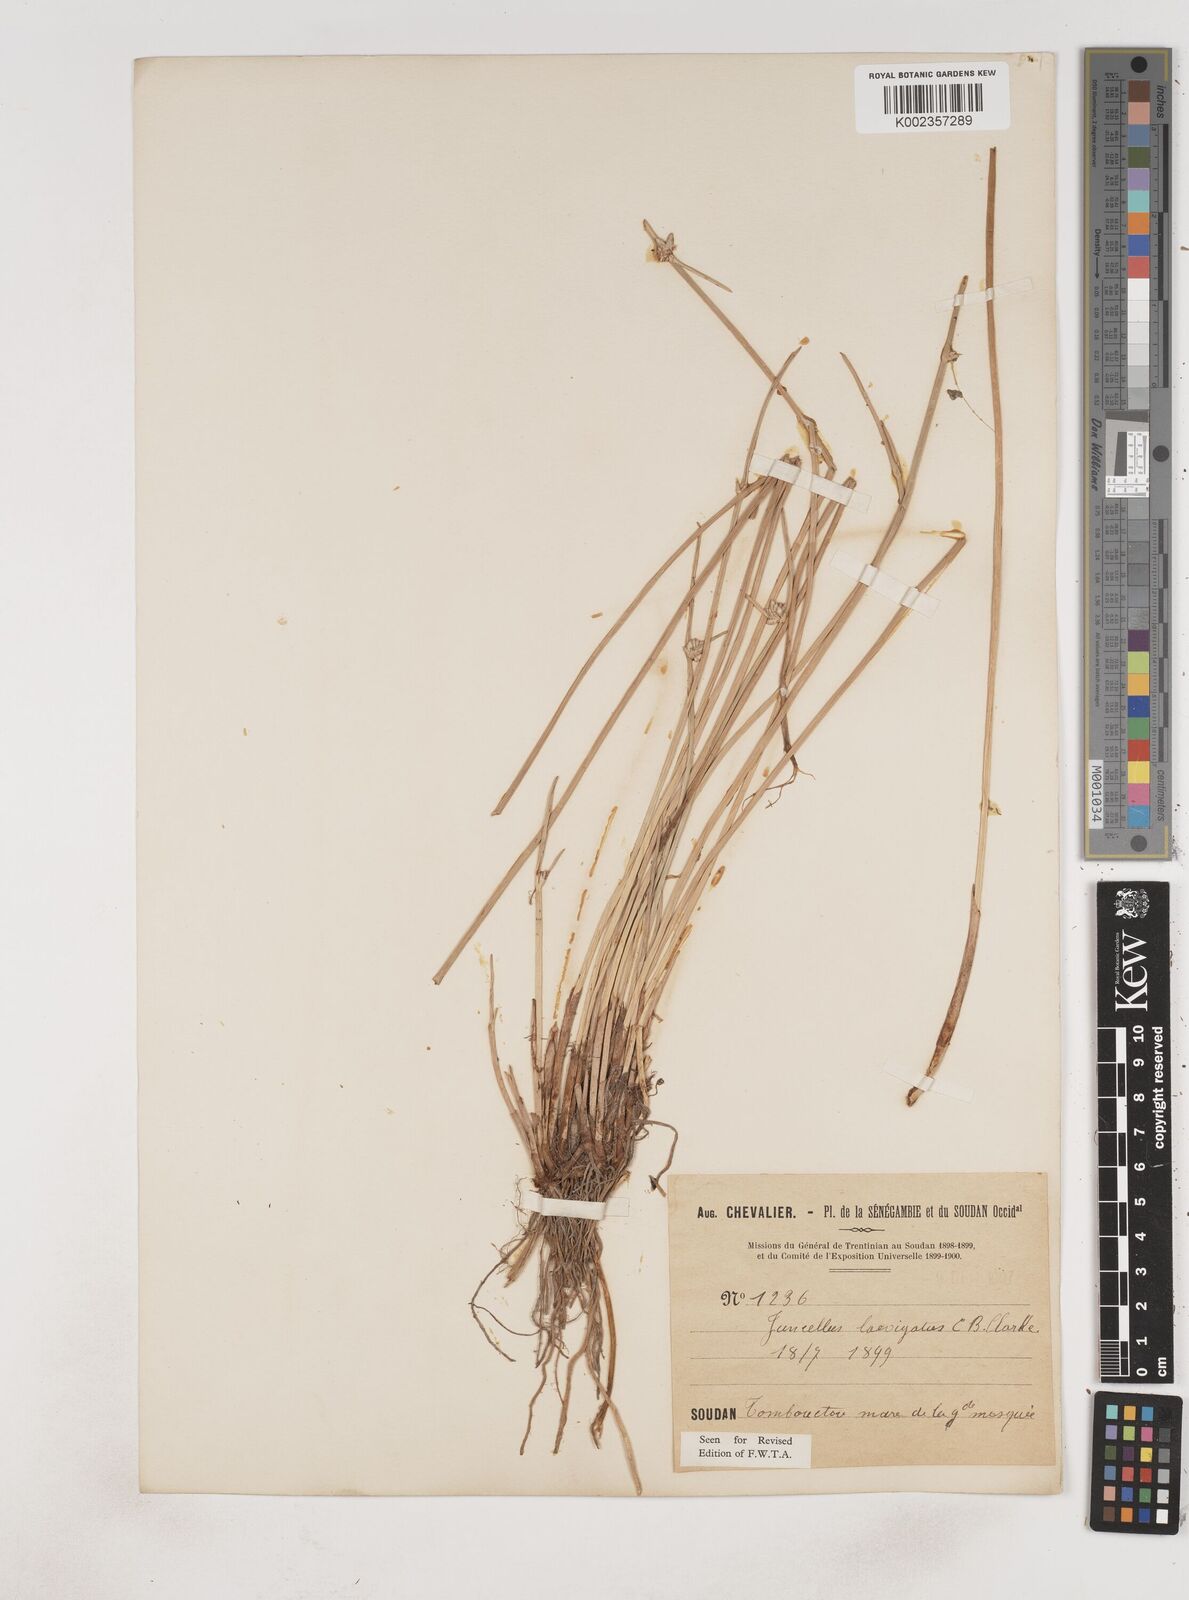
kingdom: Plantae
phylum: Tracheophyta
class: Liliopsida
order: Poales
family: Cyperaceae
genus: Cyperus
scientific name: Cyperus
